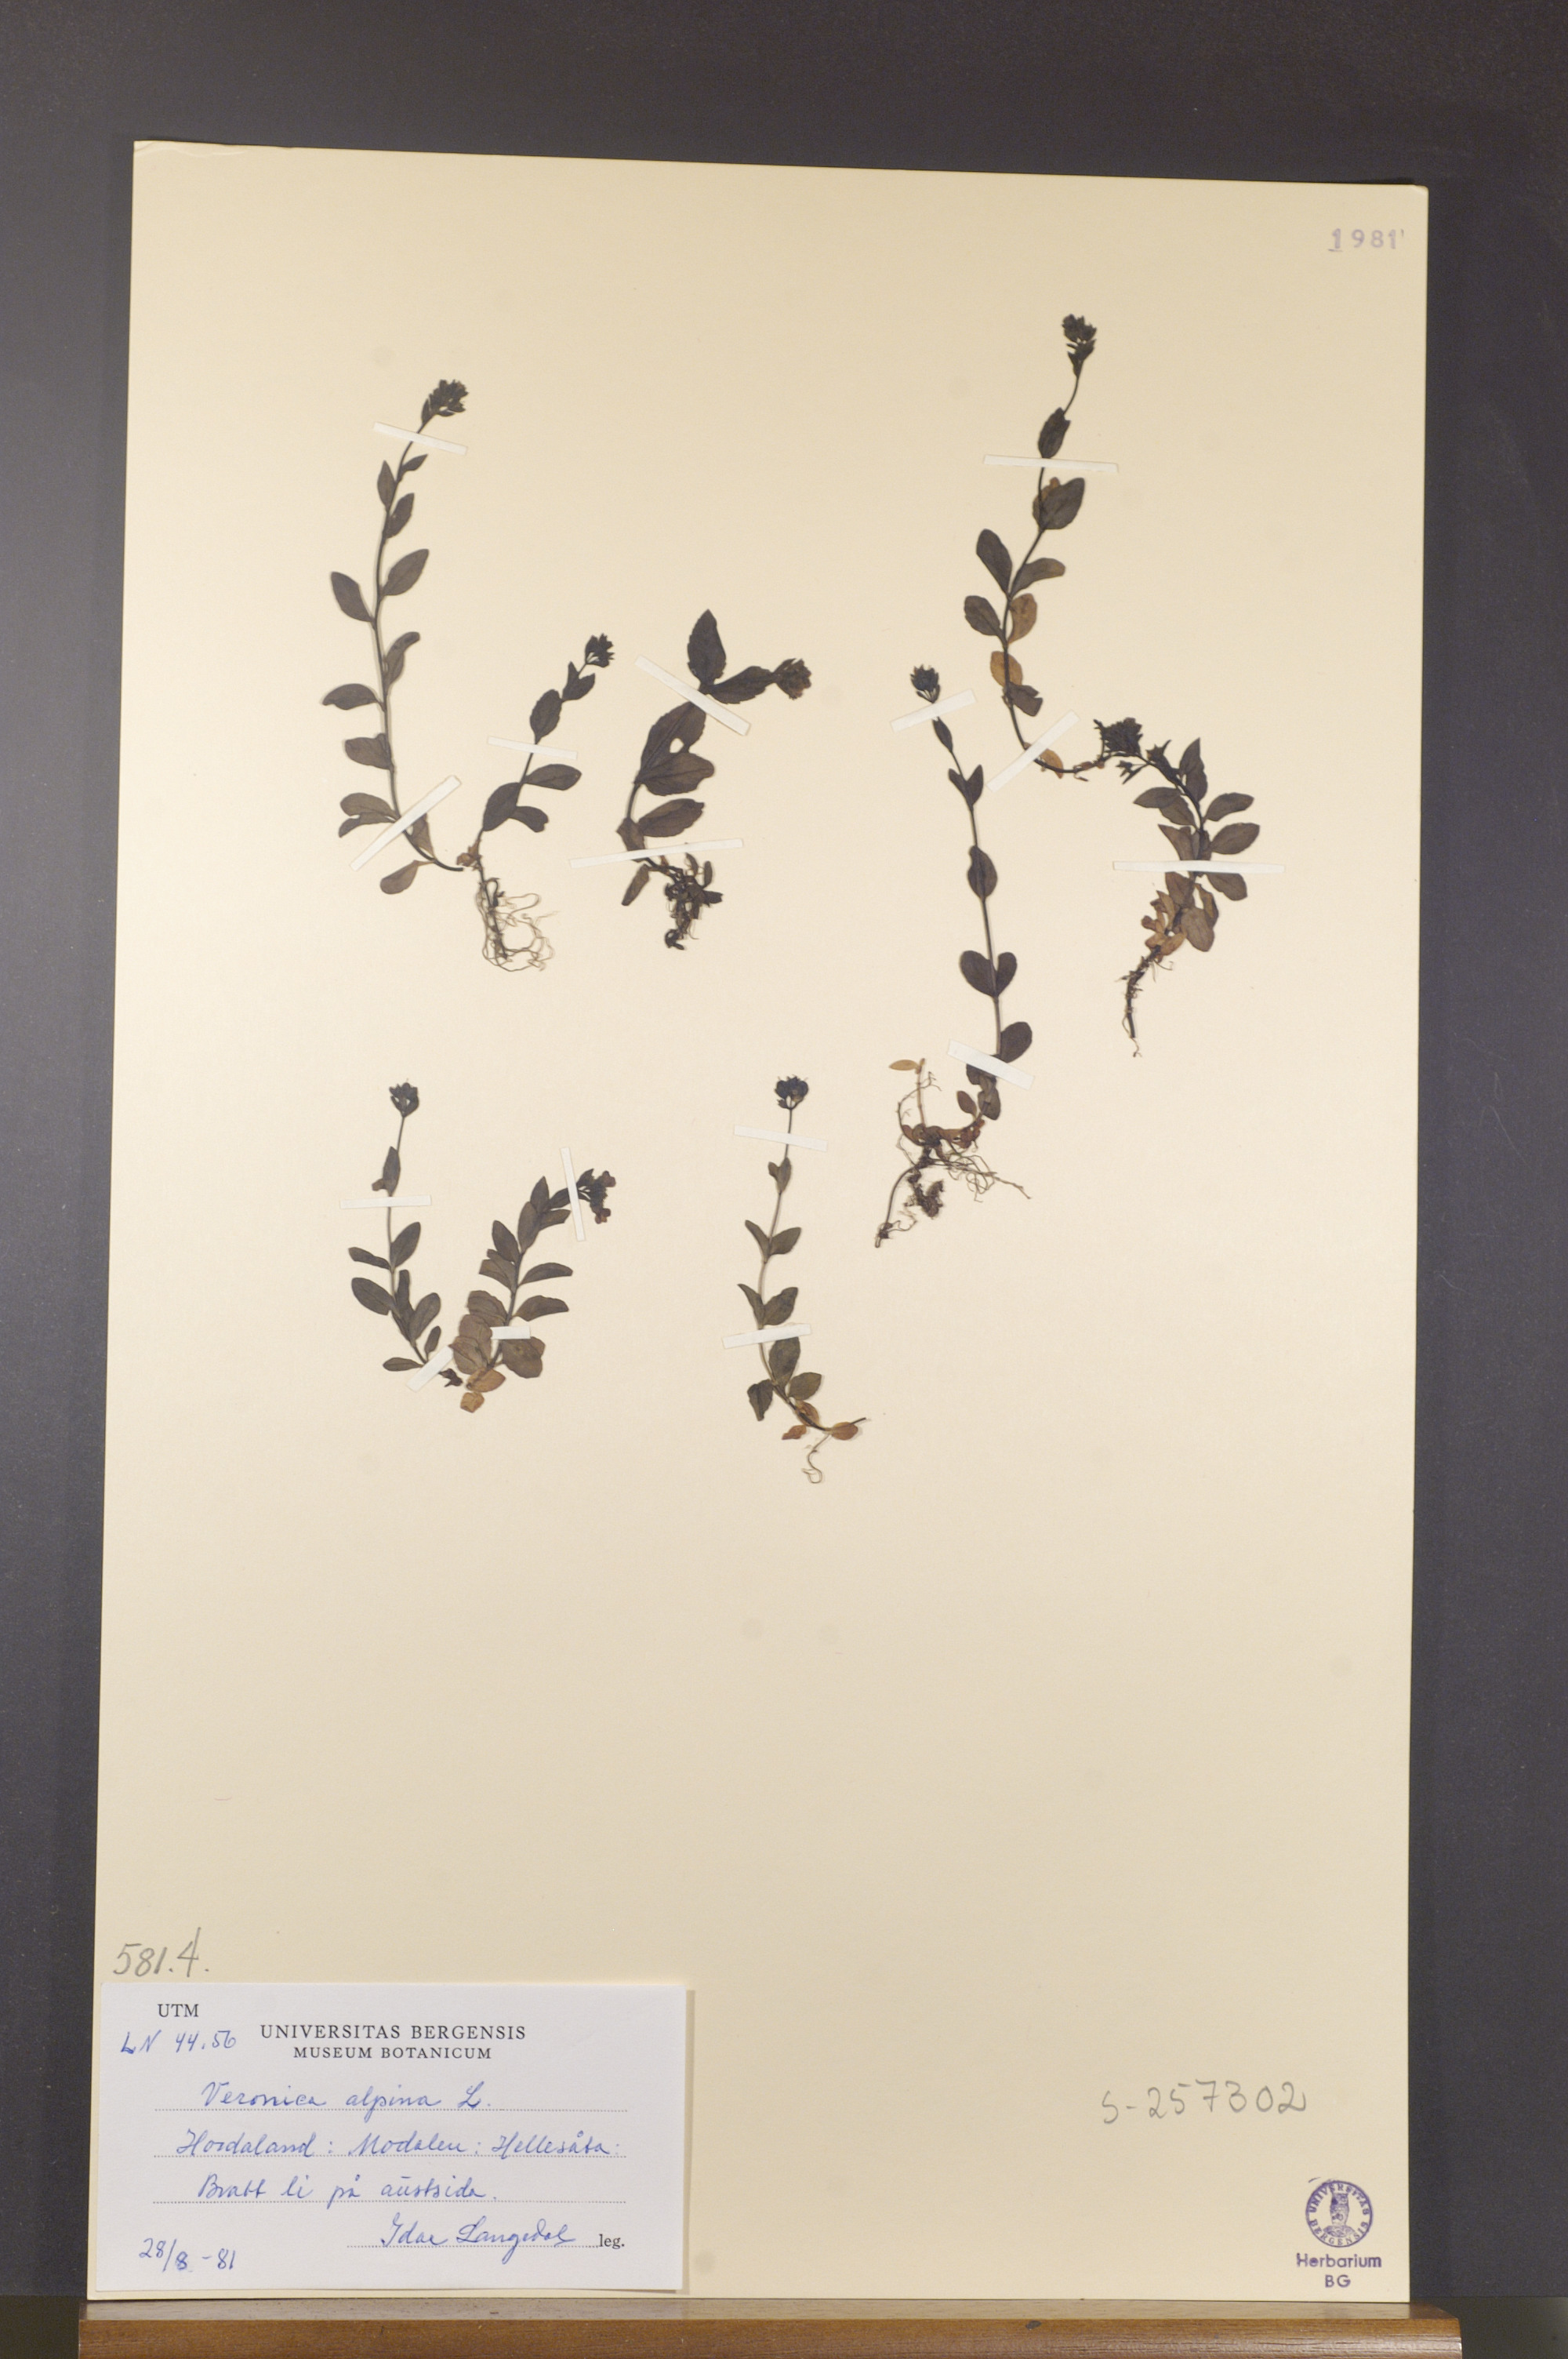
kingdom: Plantae
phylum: Tracheophyta
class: Magnoliopsida
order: Lamiales
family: Plantaginaceae
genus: Veronica
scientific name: Veronica alpina
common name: Alpine speedwell
